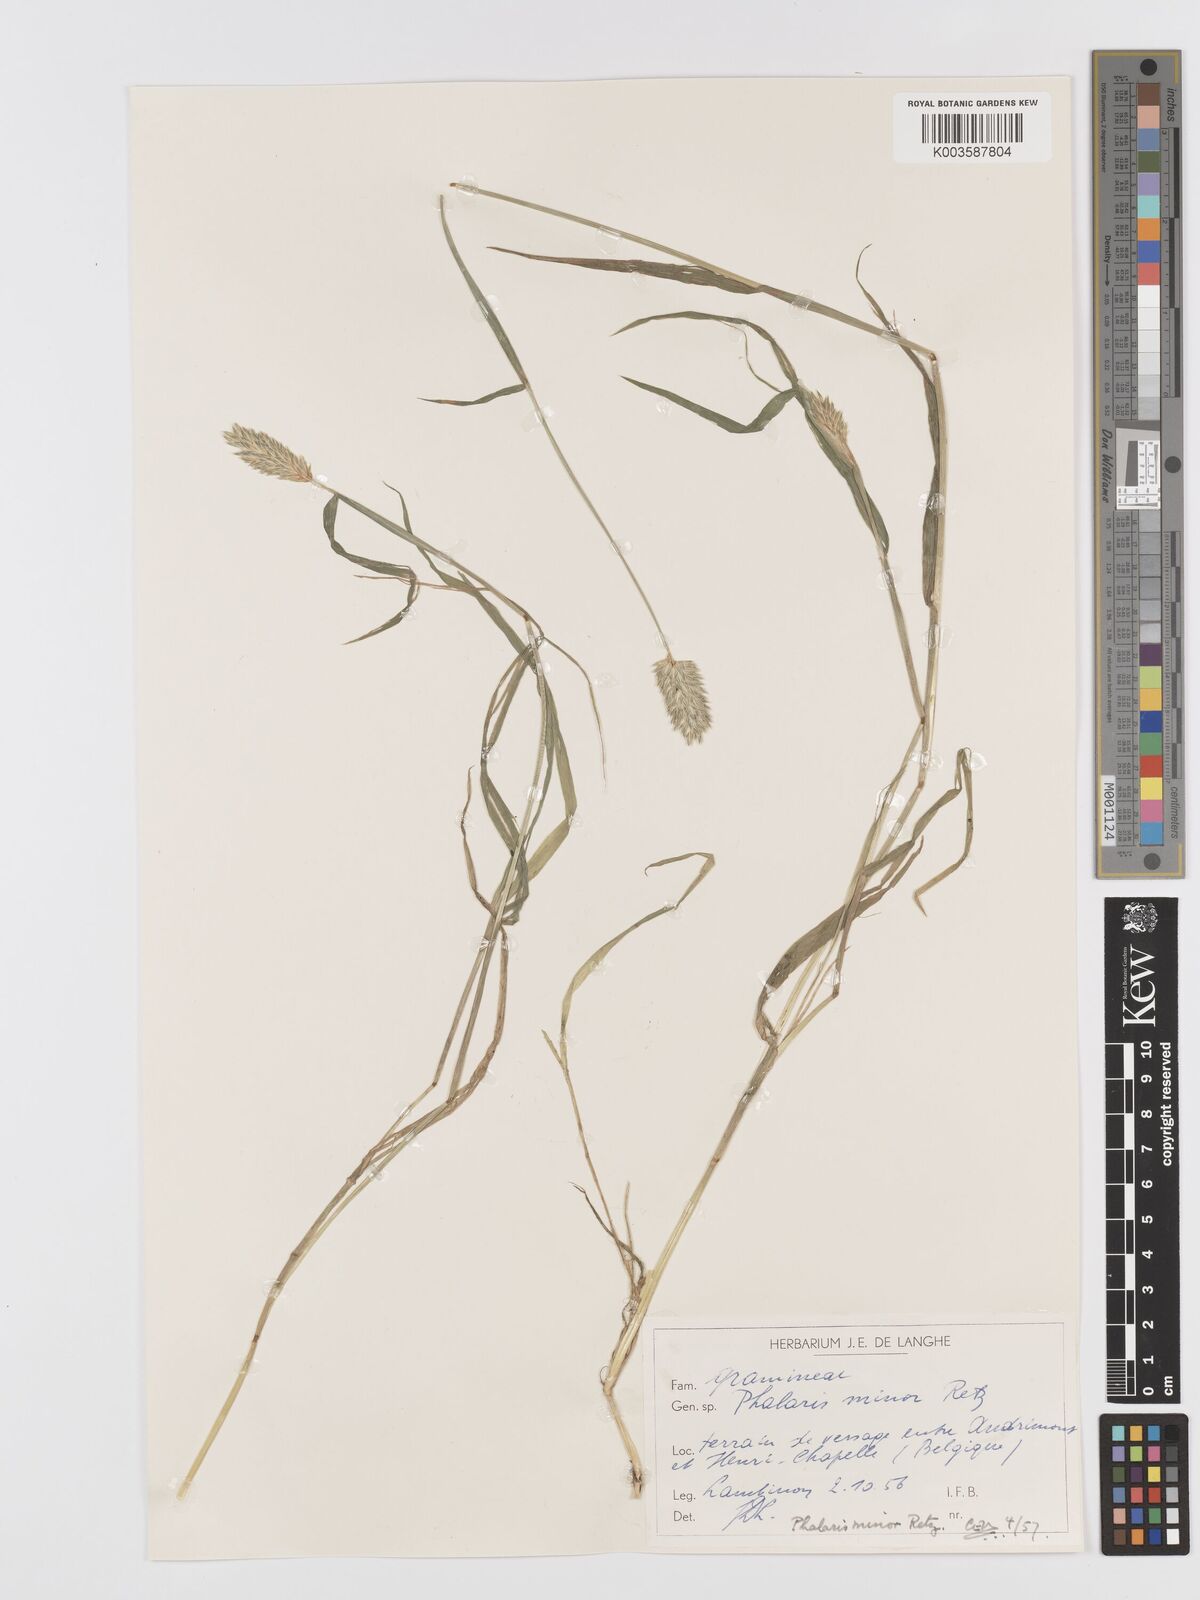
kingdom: Plantae
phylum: Tracheophyta
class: Liliopsida
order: Poales
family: Poaceae
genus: Phalaris
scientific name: Phalaris minor
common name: Littleseed canarygrass
